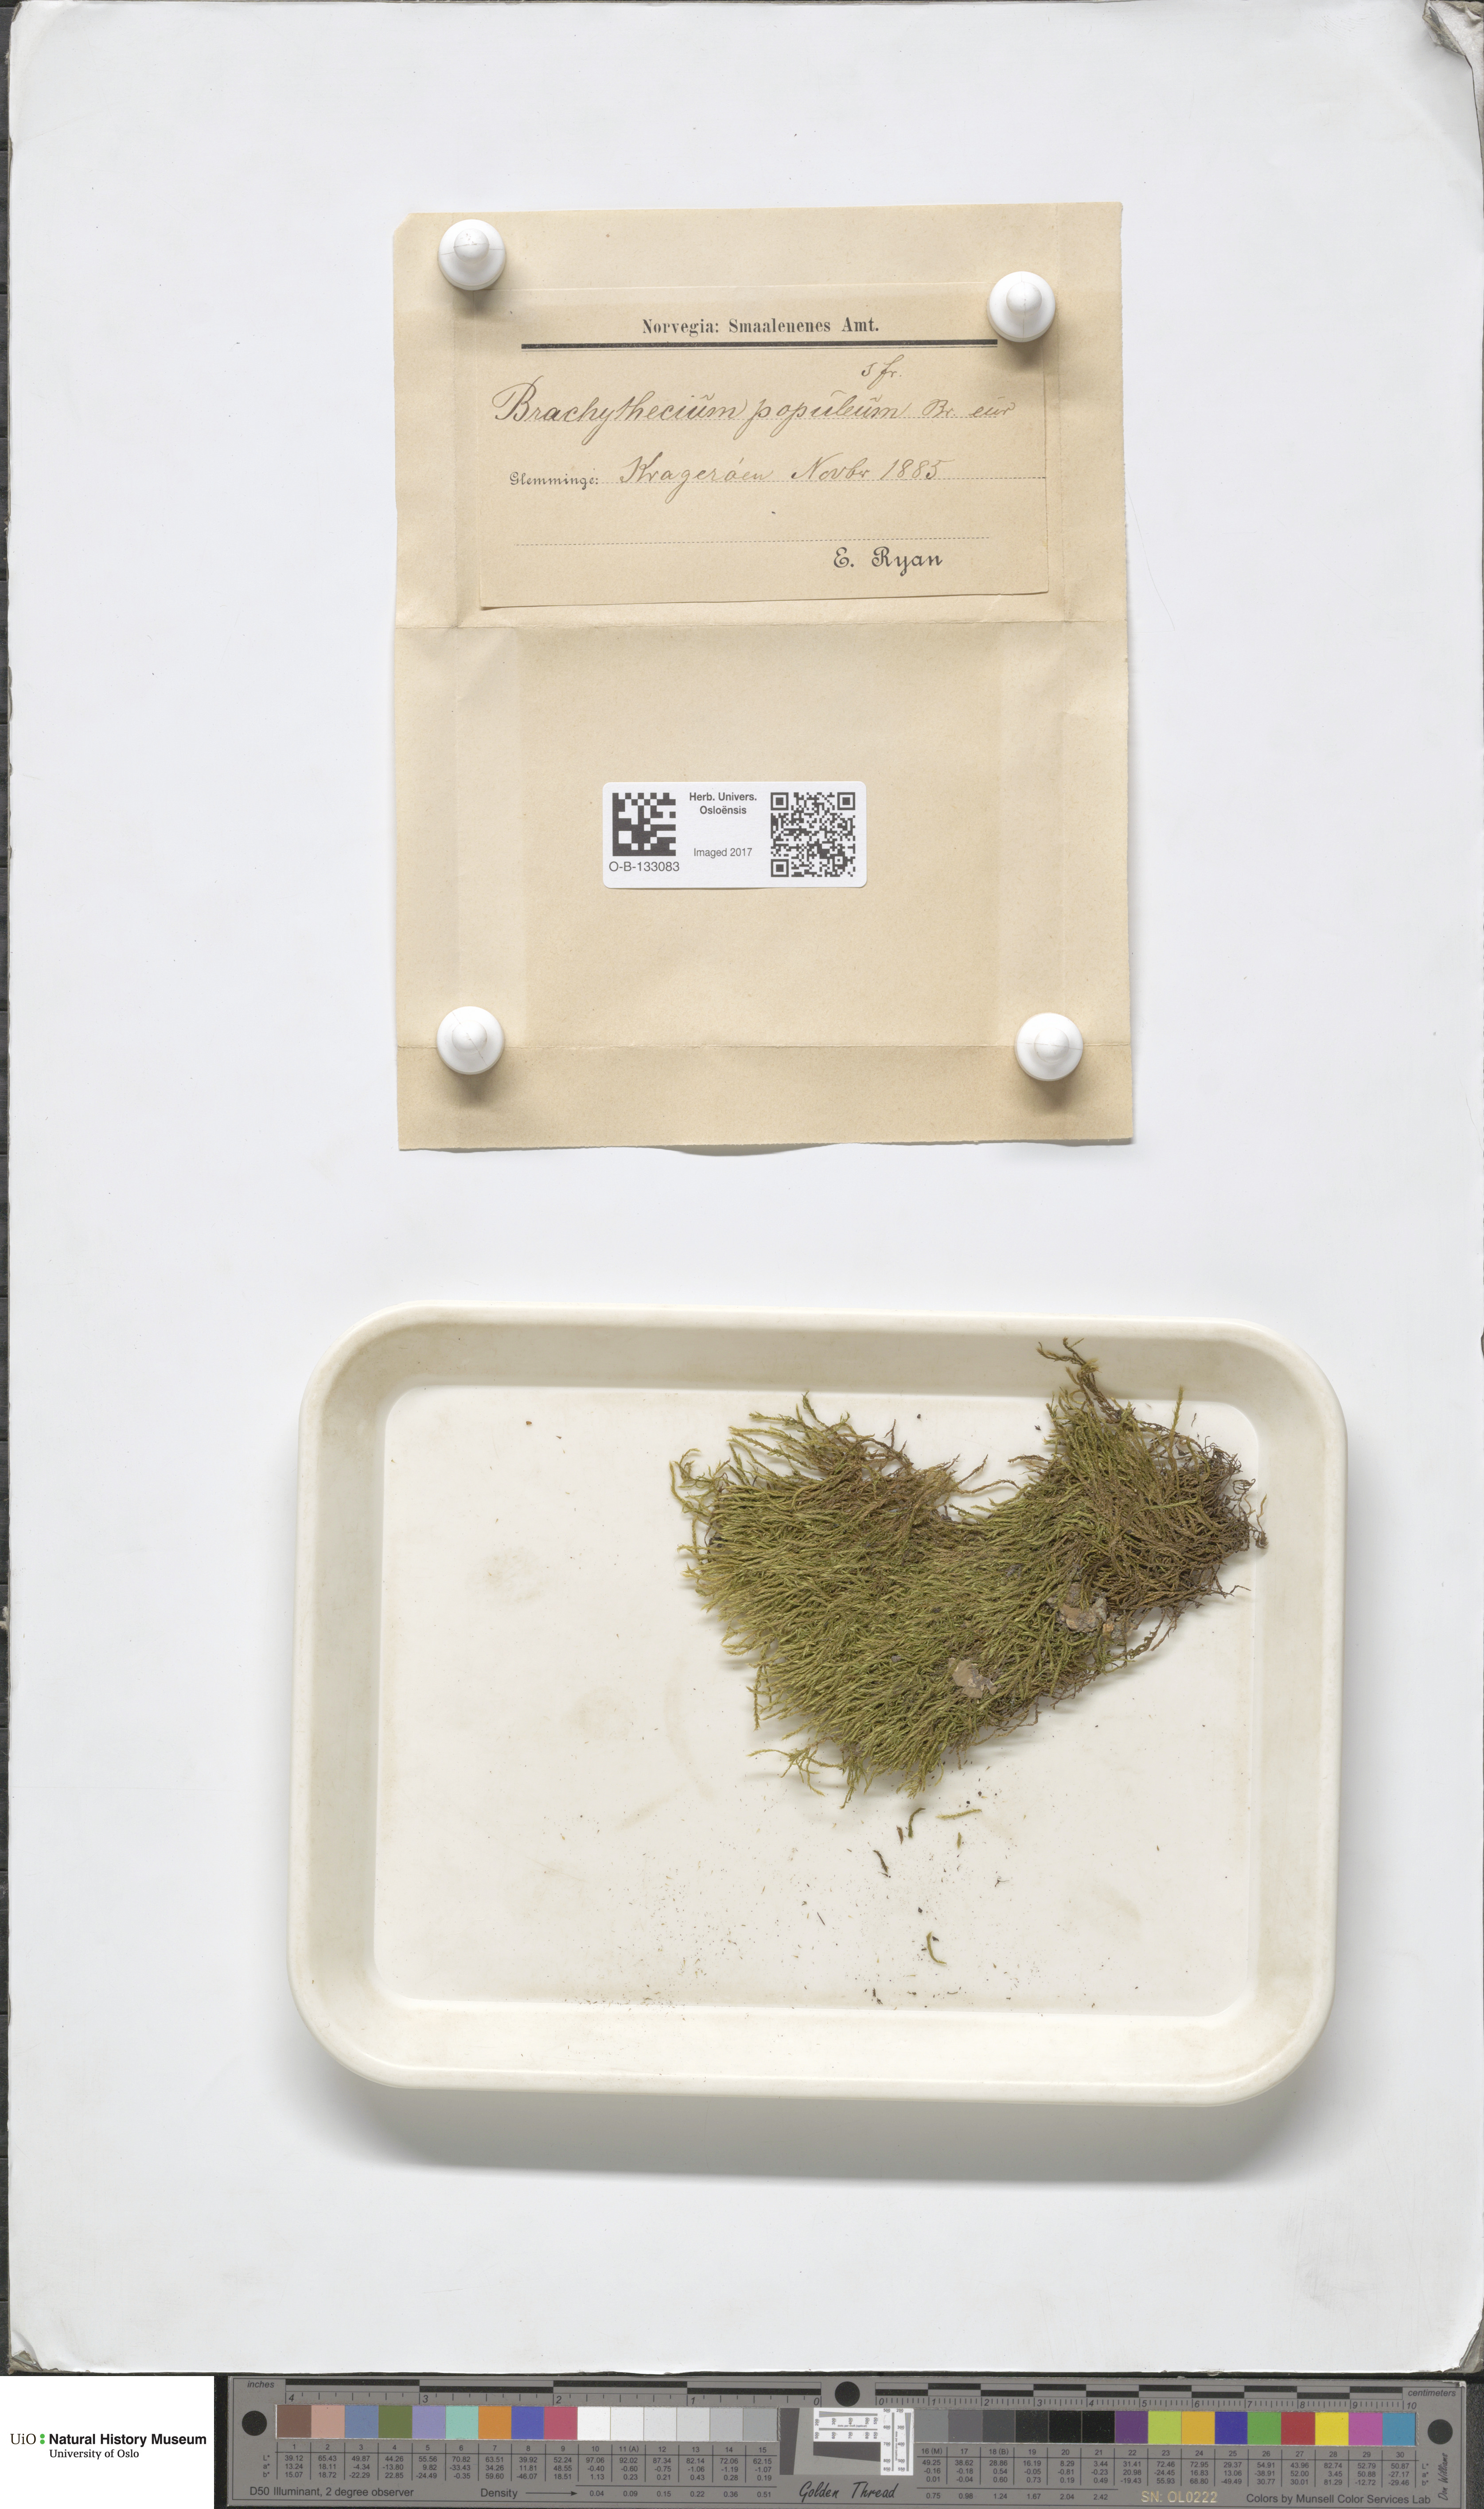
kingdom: Plantae
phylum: Bryophyta
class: Bryopsida
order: Hypnales
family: Brachytheciaceae
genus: Sciuro-hypnum
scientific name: Sciuro-hypnum plumosum
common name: Rusty feather-moss
